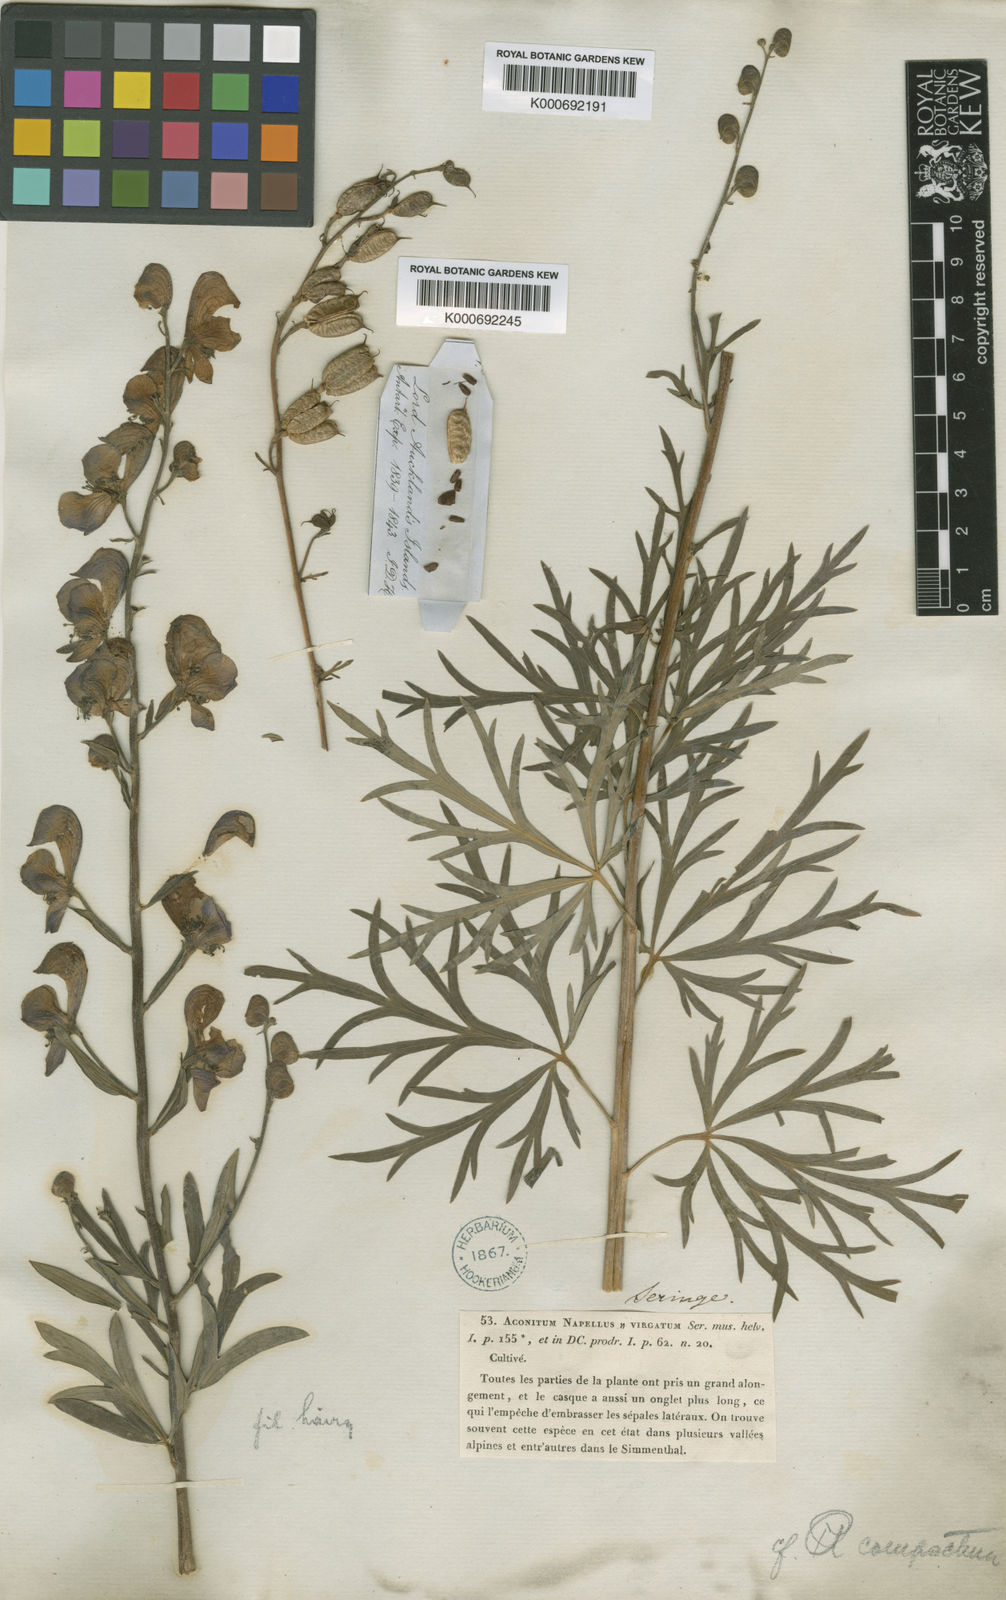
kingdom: Plantae
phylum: Tracheophyta
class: Magnoliopsida
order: Ranunculales
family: Ranunculaceae
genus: Aconitum
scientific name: Aconitum
